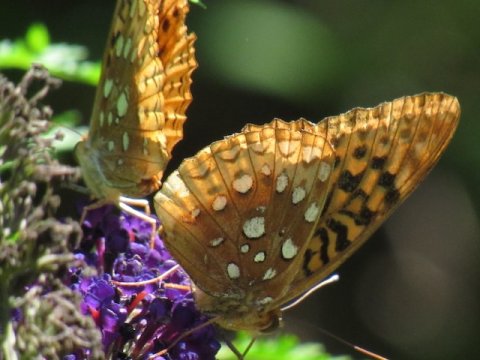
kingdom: Animalia
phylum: Arthropoda
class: Insecta
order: Lepidoptera
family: Nymphalidae
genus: Speyeria
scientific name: Speyeria cybele
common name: Great Spangled Fritillary
